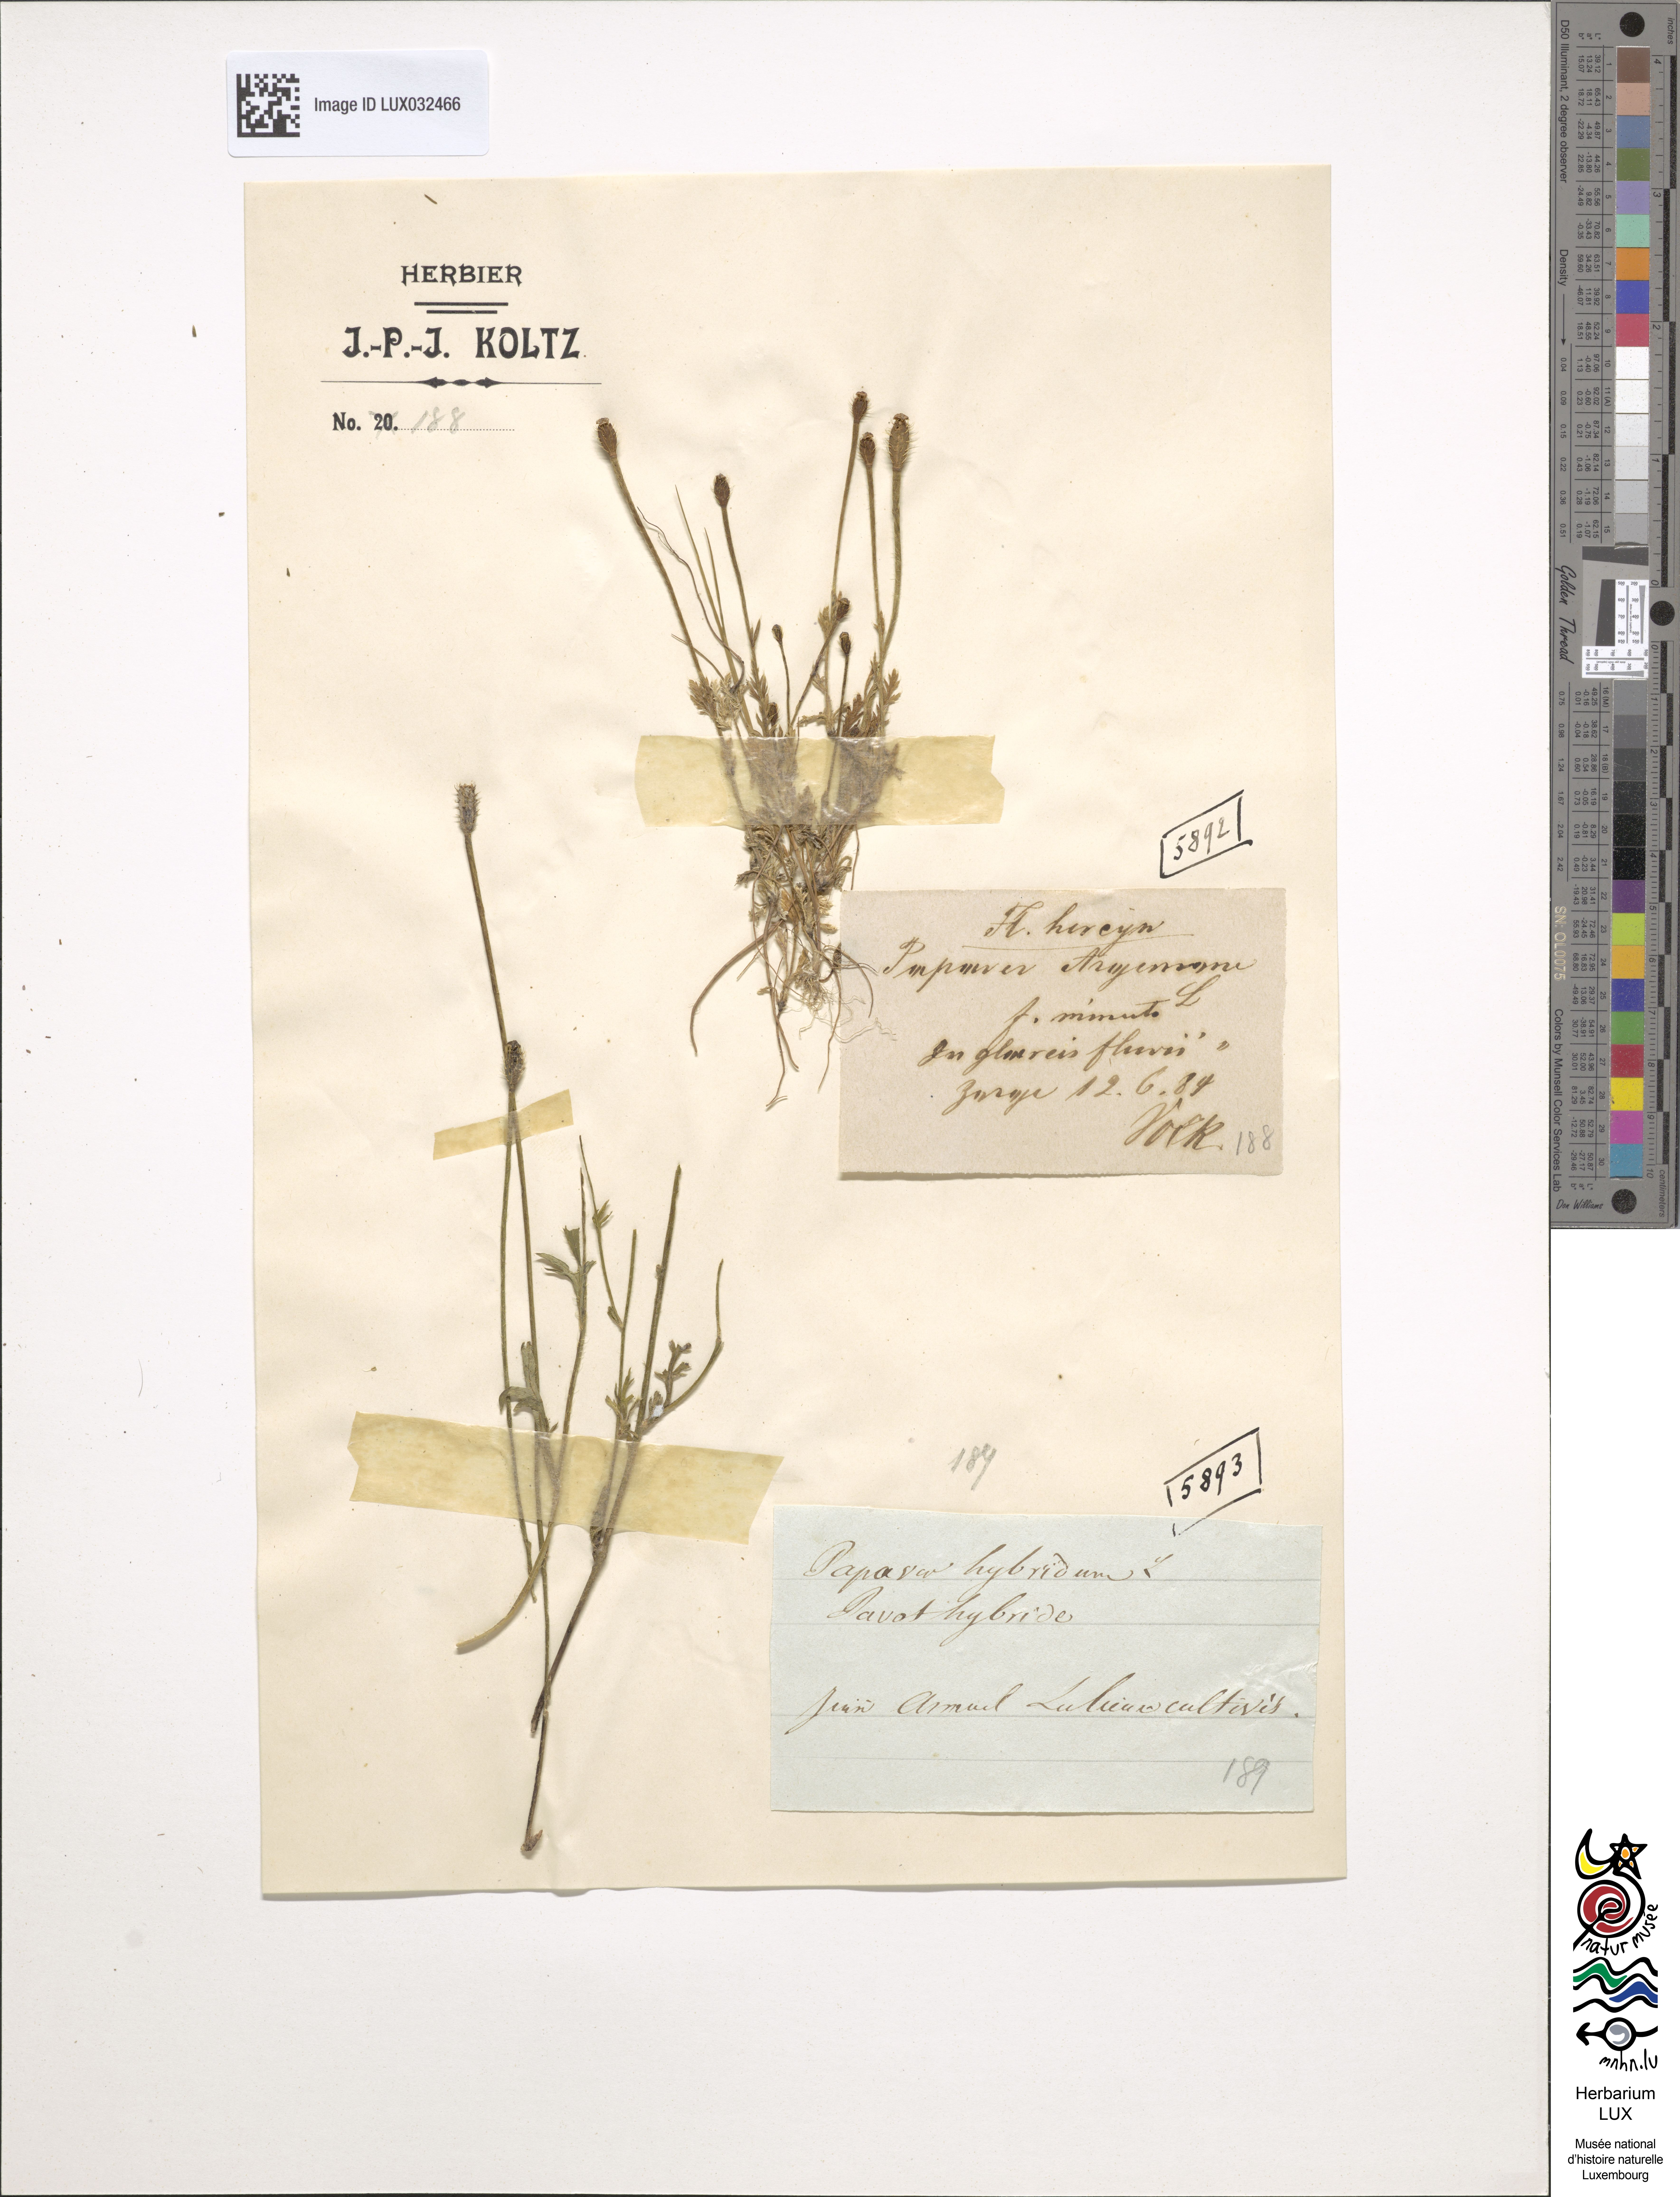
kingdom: Plantae
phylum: Tracheophyta
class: Magnoliopsida
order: Ranunculales
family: Papaveraceae
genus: Roemeria
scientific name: Roemeria argemone
